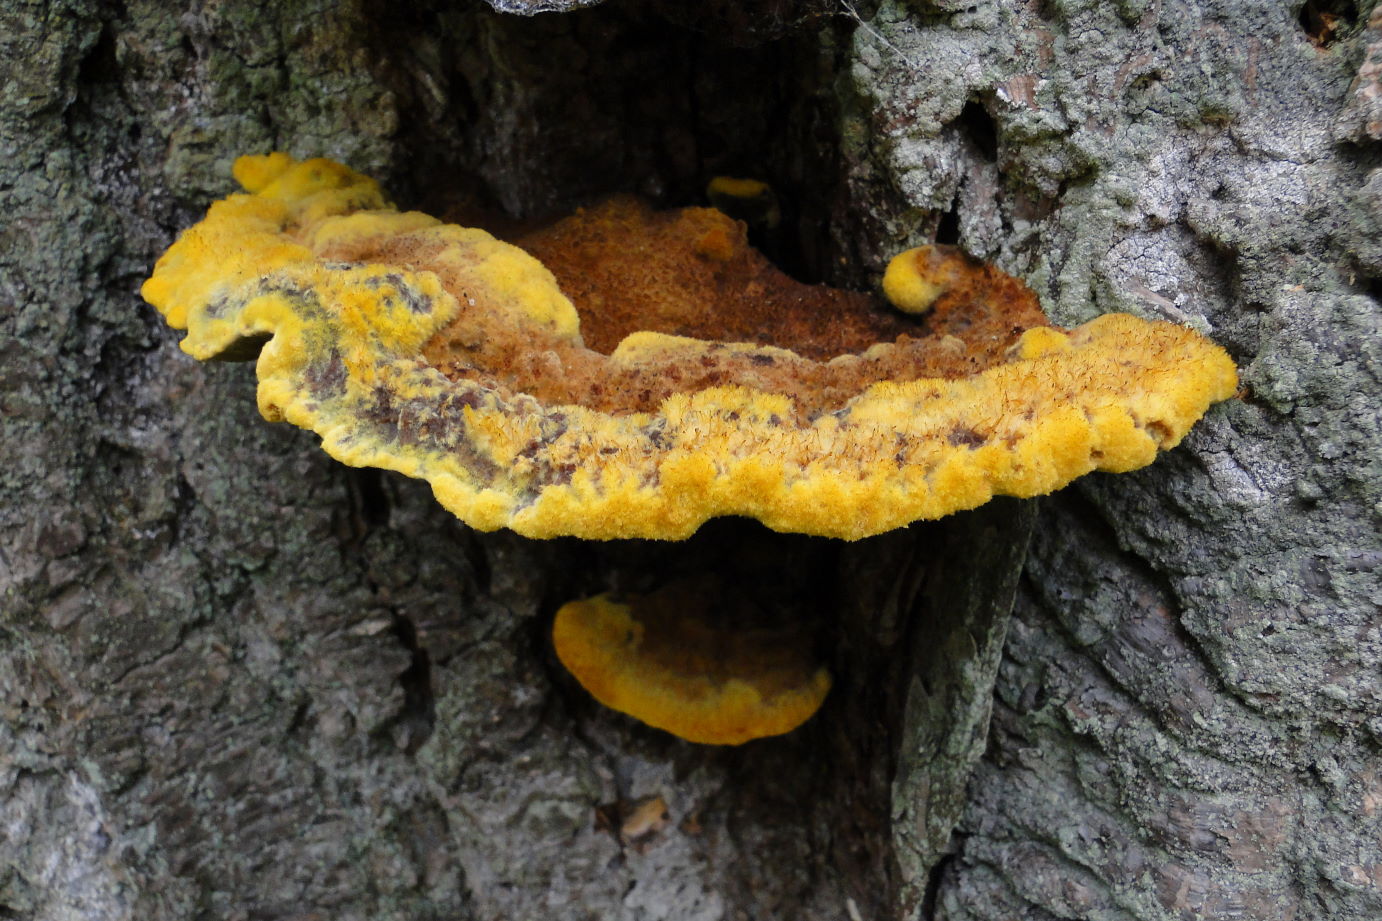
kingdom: Fungi
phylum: Basidiomycota
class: Agaricomycetes
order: Polyporales
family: Laetiporaceae
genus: Phaeolus
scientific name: Phaeolus schweinitzii
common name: brunporesvamp
